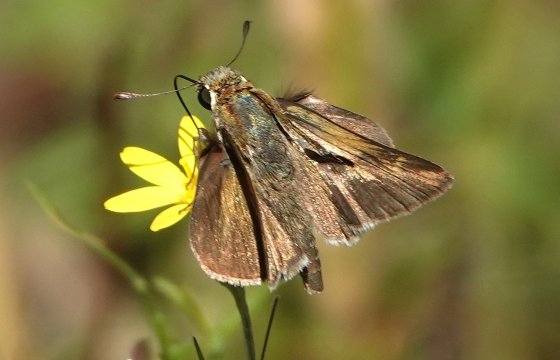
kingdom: Animalia
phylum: Arthropoda
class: Insecta
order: Lepidoptera
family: Hesperiidae
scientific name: Hesperiidae
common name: Skippers
